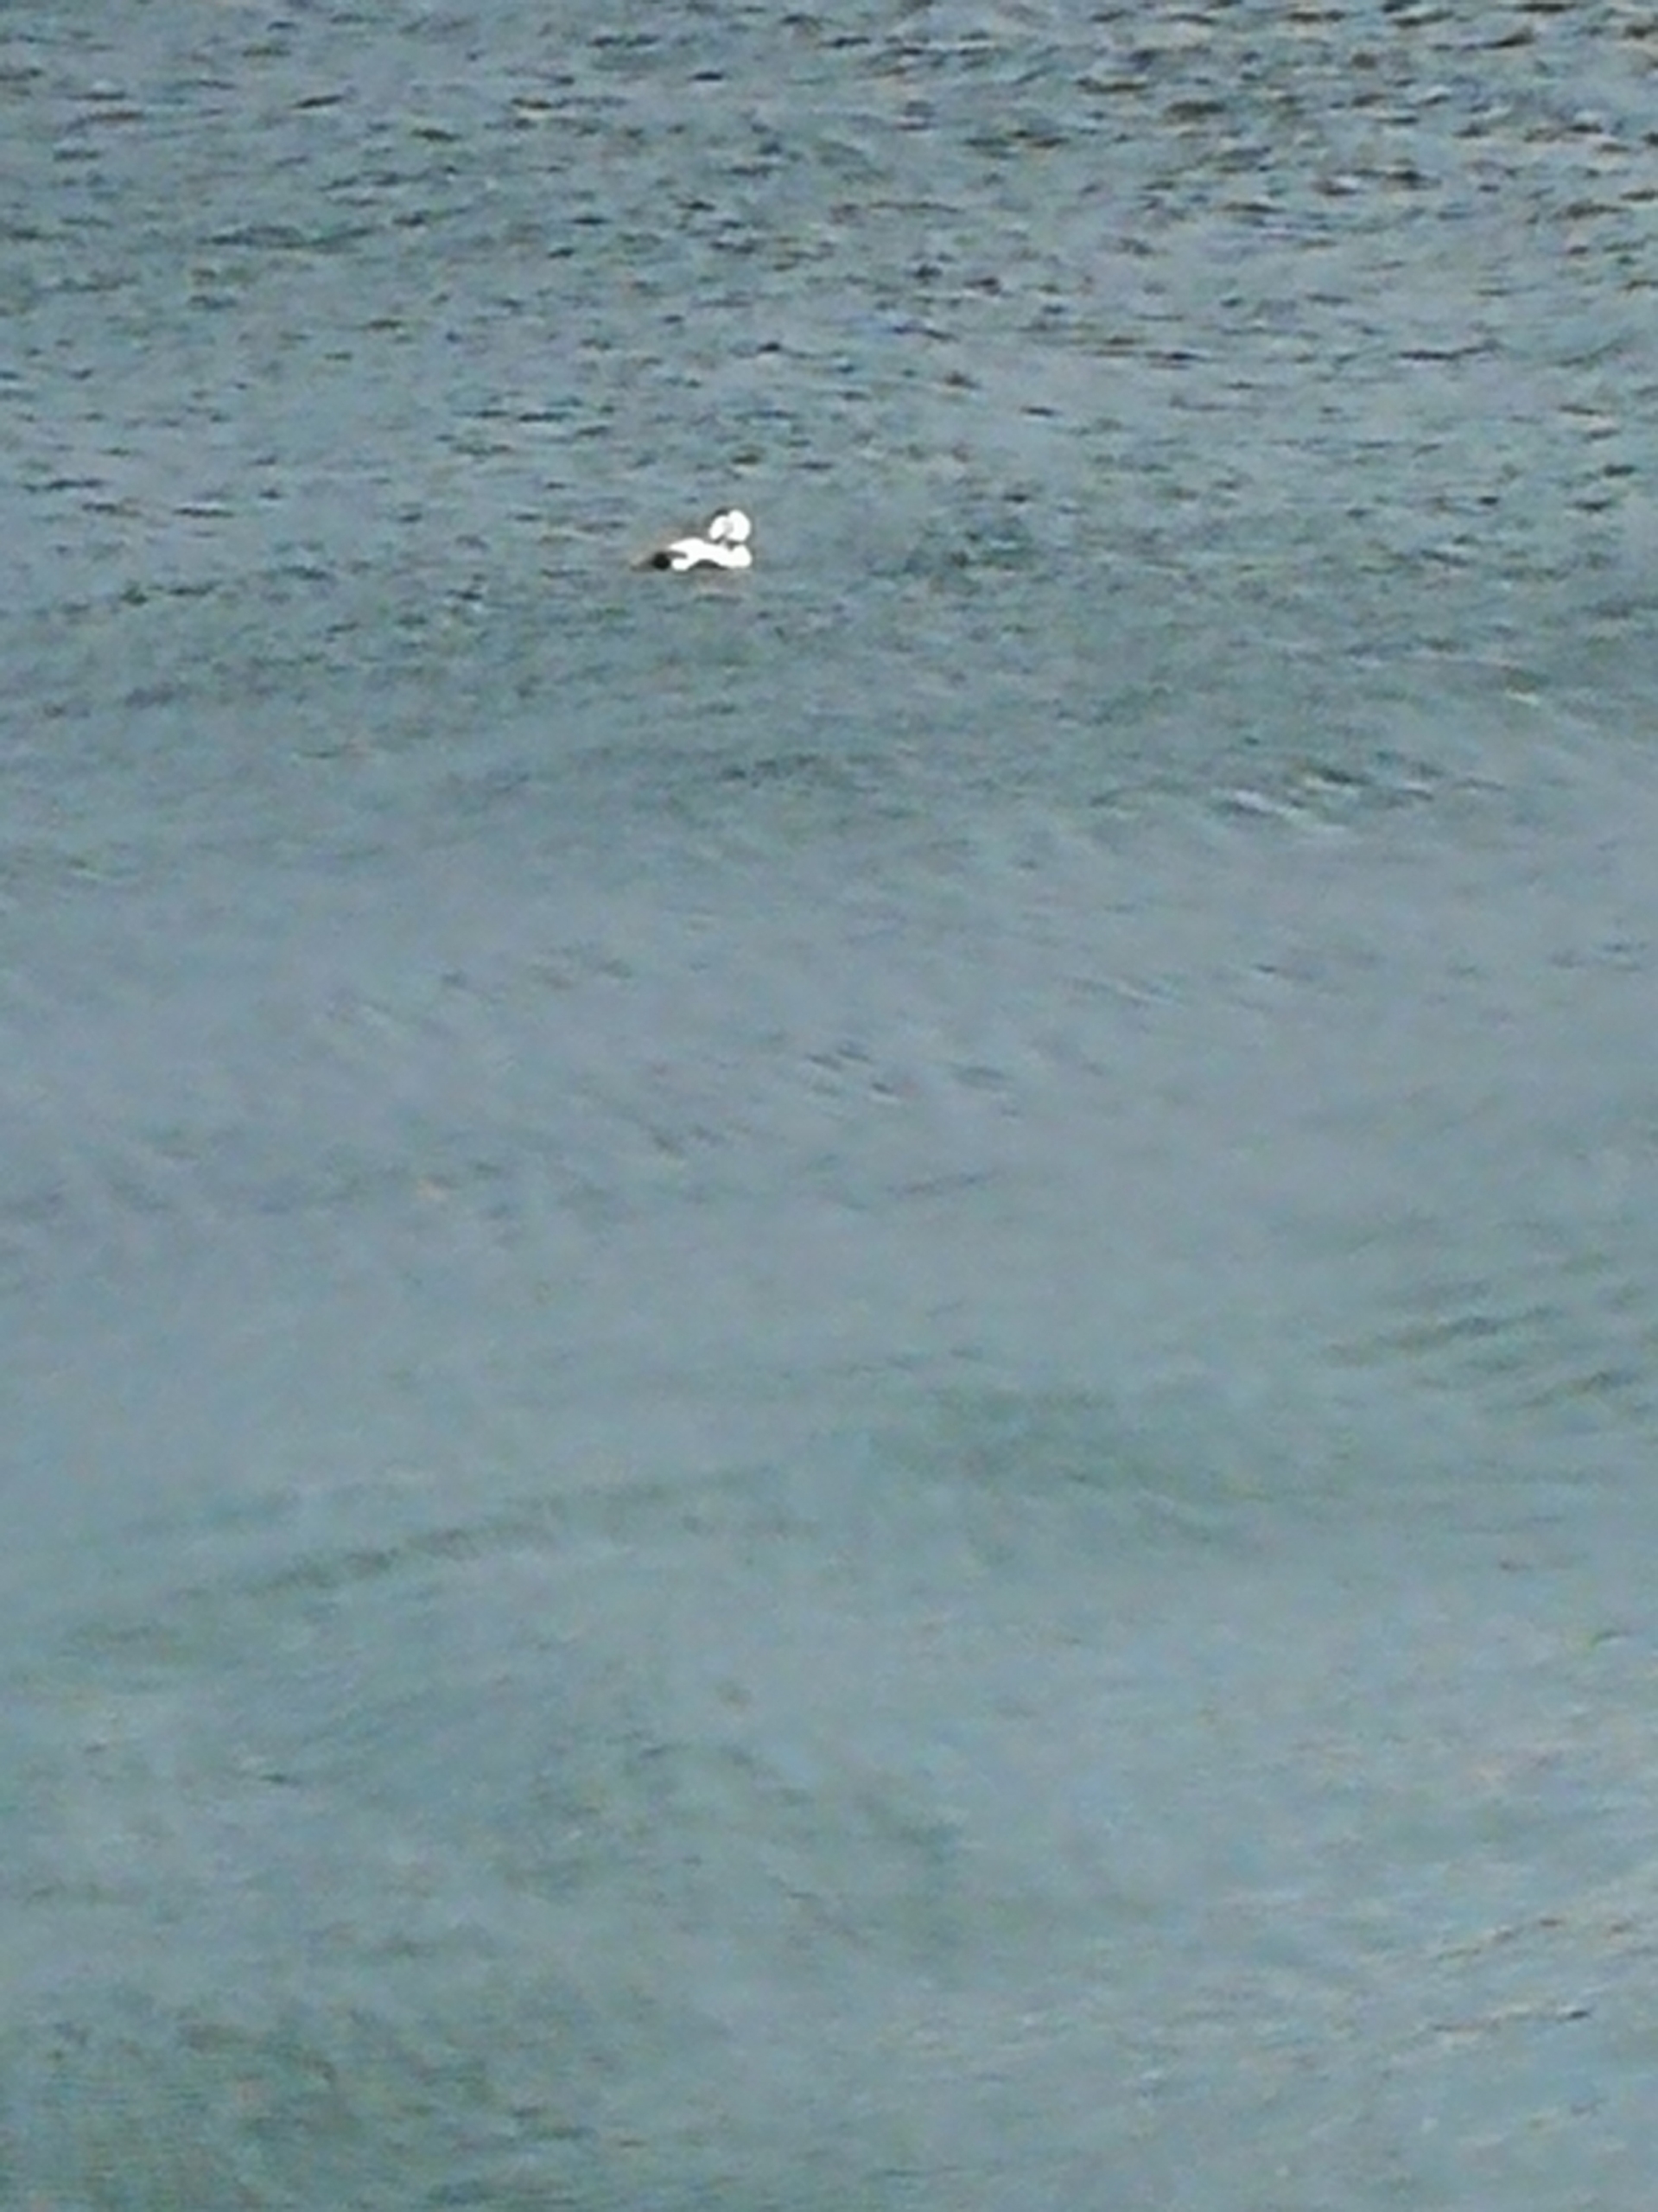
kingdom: Animalia
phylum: Chordata
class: Aves
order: Anseriformes
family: Anatidae
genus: Somateria
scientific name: Somateria mollissima
